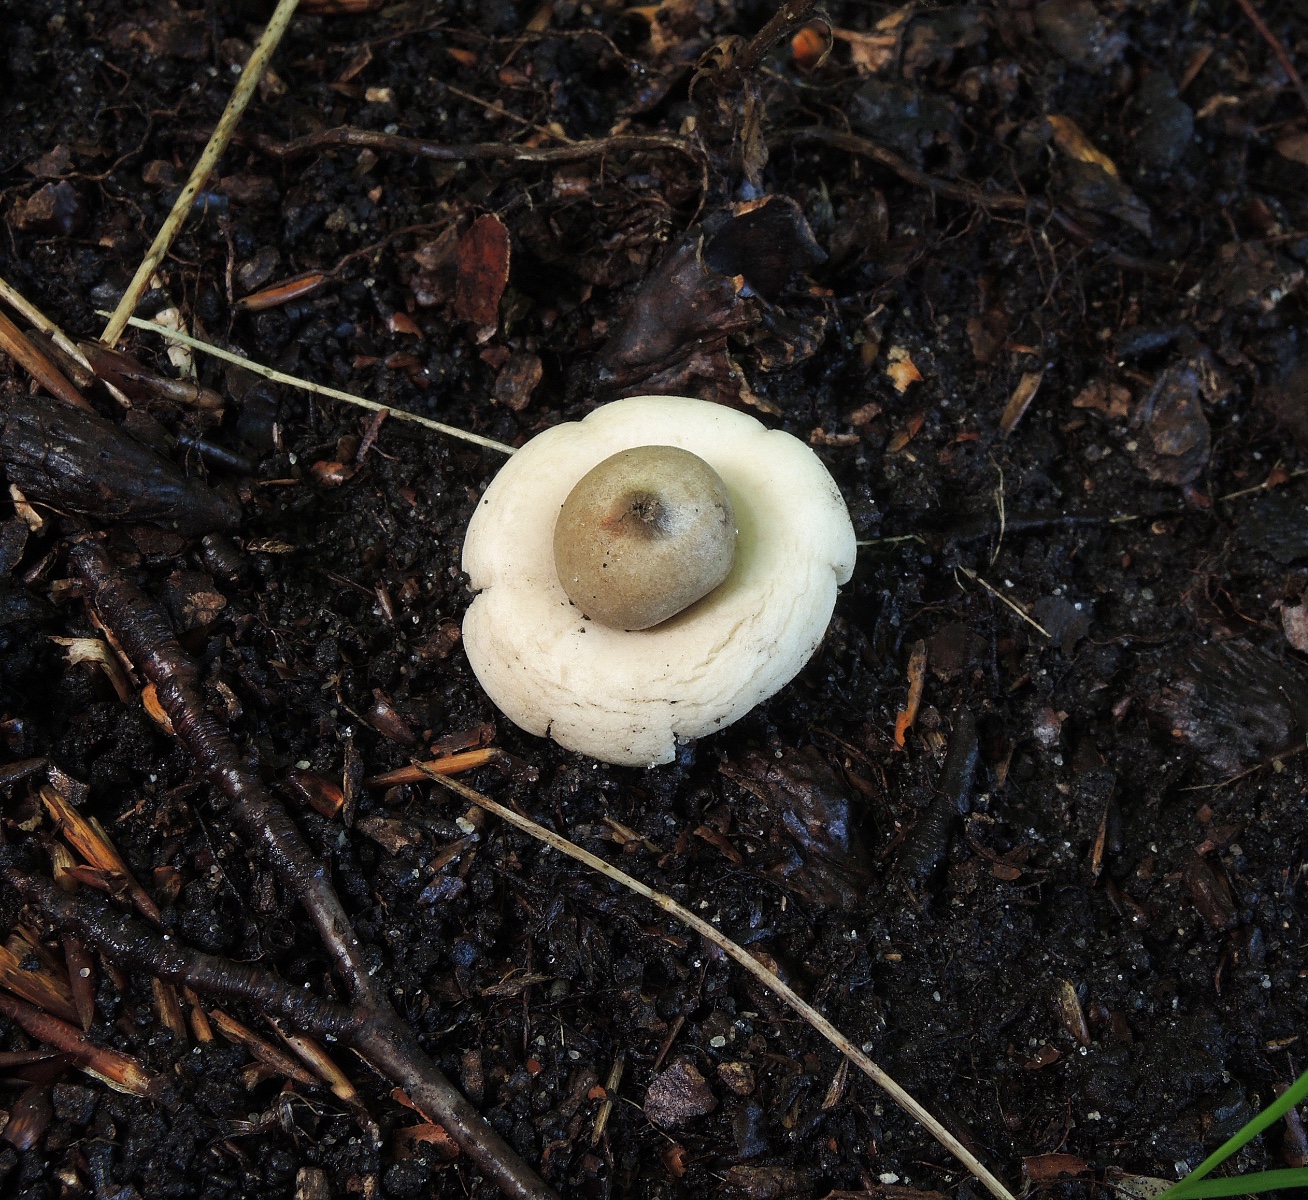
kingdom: Fungi
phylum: Basidiomycota
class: Agaricomycetes
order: Geastrales
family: Geastraceae
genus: Geastrum
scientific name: Geastrum fimbriatum
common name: frynset stjernebold
